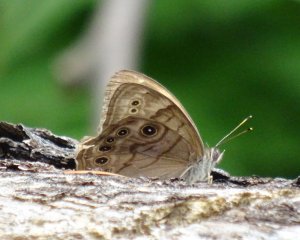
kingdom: Animalia
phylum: Arthropoda
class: Insecta
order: Lepidoptera
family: Nymphalidae
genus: Lethe
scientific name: Lethe anthedon
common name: Northern Pearly-Eye
